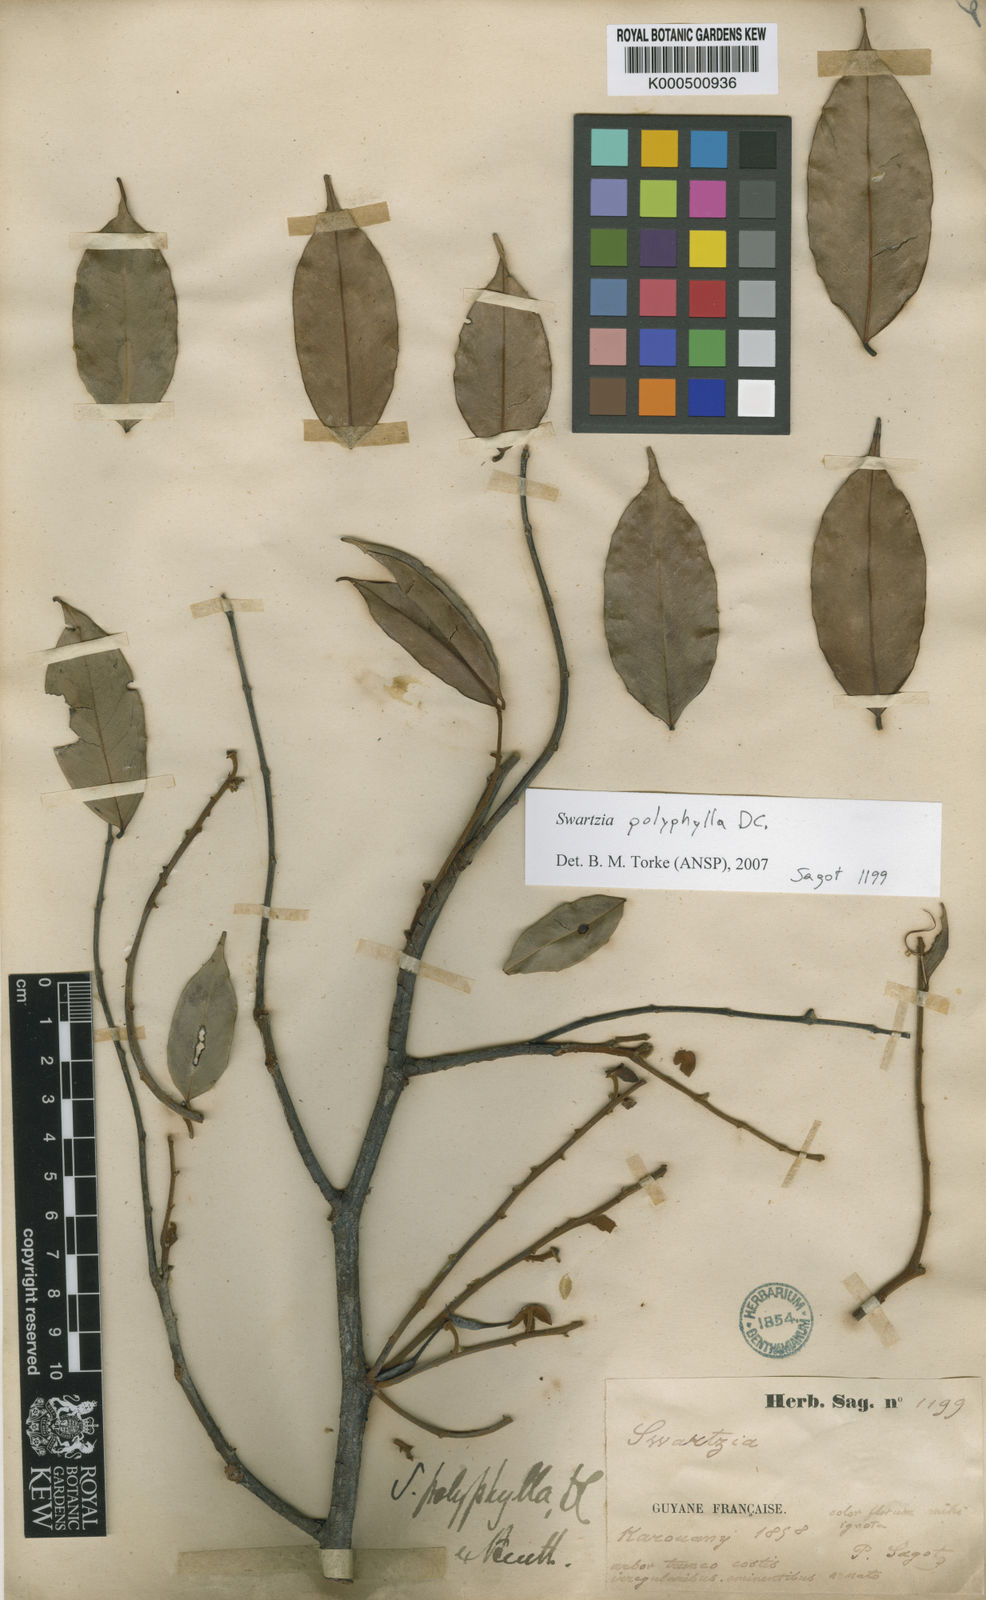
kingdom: Plantae
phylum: Tracheophyta
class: Magnoliopsida
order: Fabales
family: Fabaceae
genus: Swartzia
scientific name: Swartzia polyphylla
